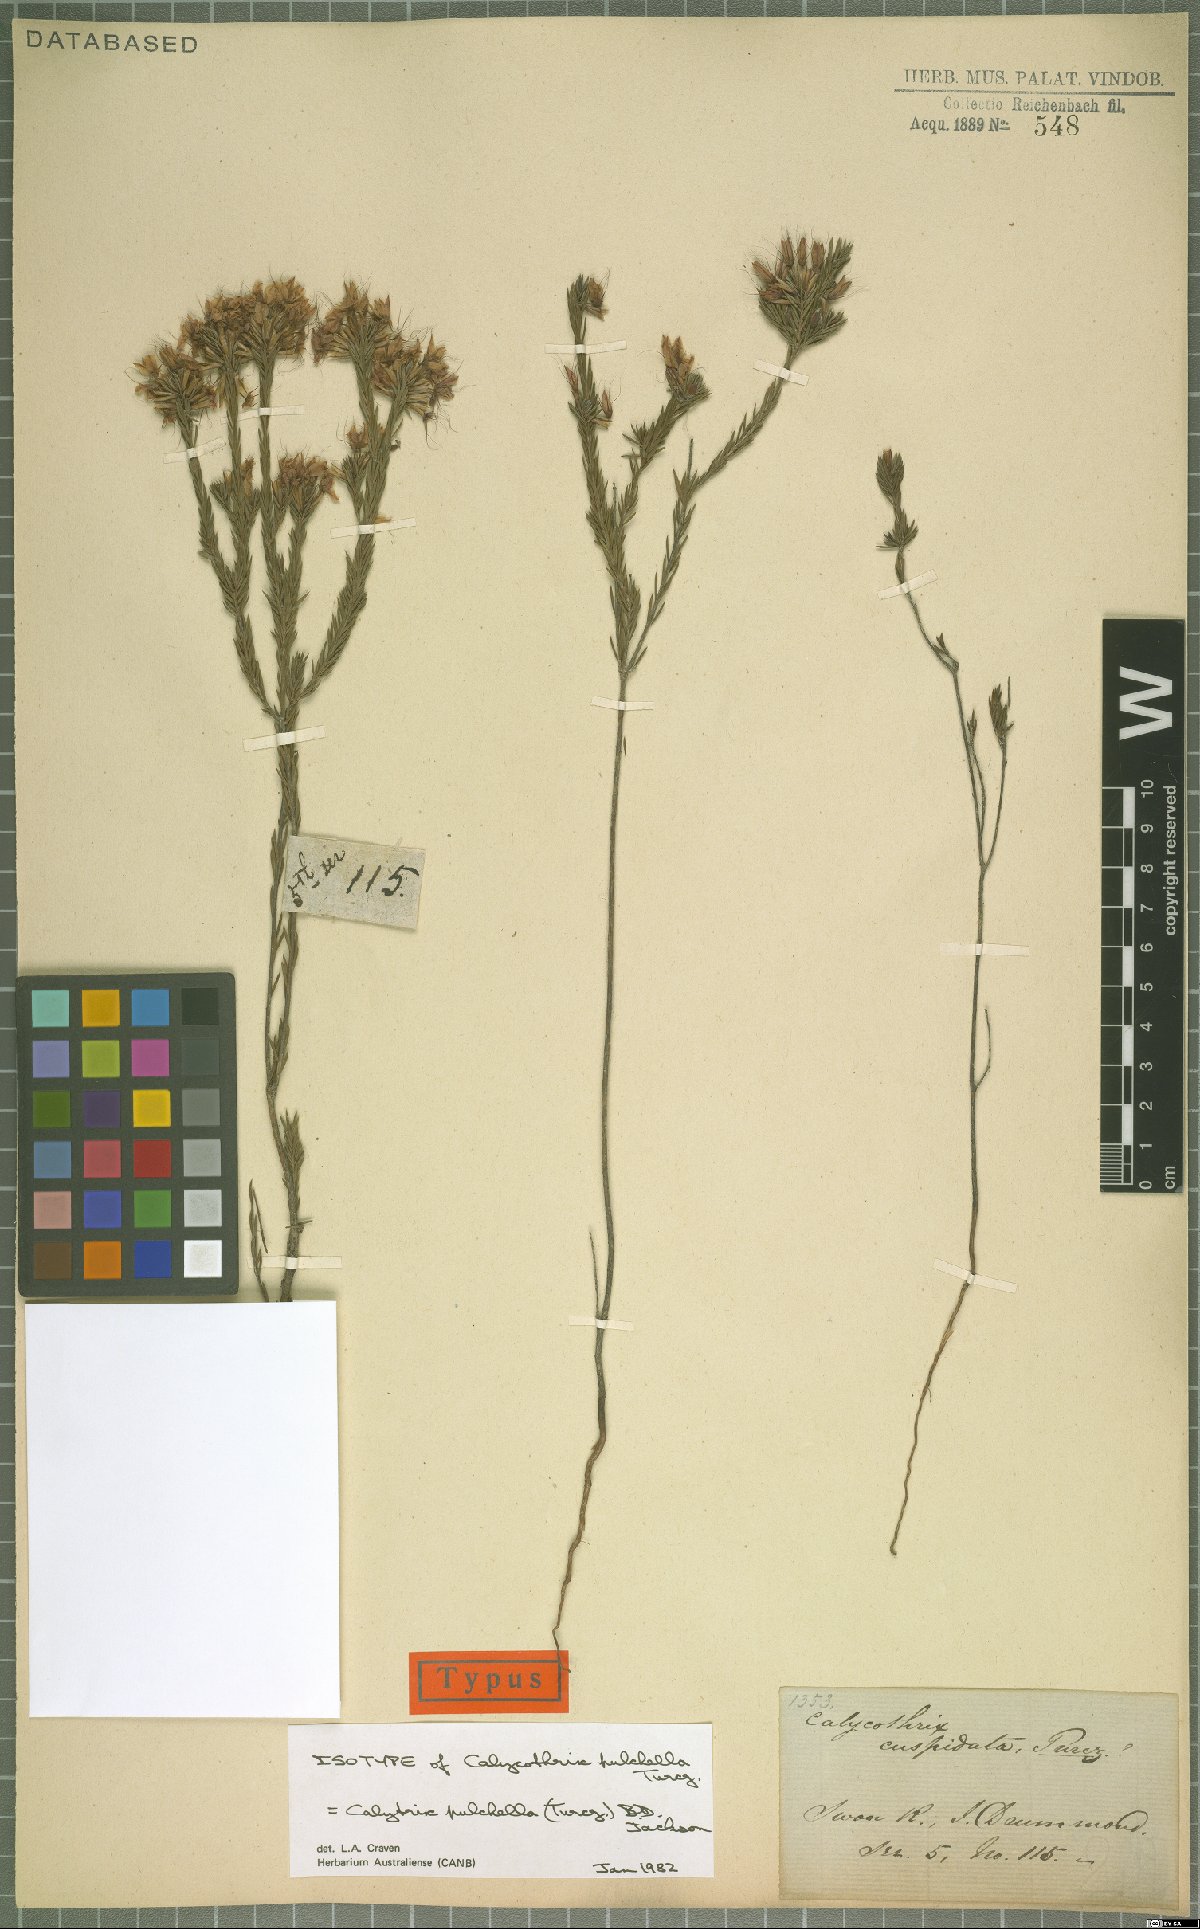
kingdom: Plantae
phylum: Tracheophyta
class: Magnoliopsida
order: Myrtales
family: Myrtaceae
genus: Calytrix
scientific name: Calytrix pulchella
